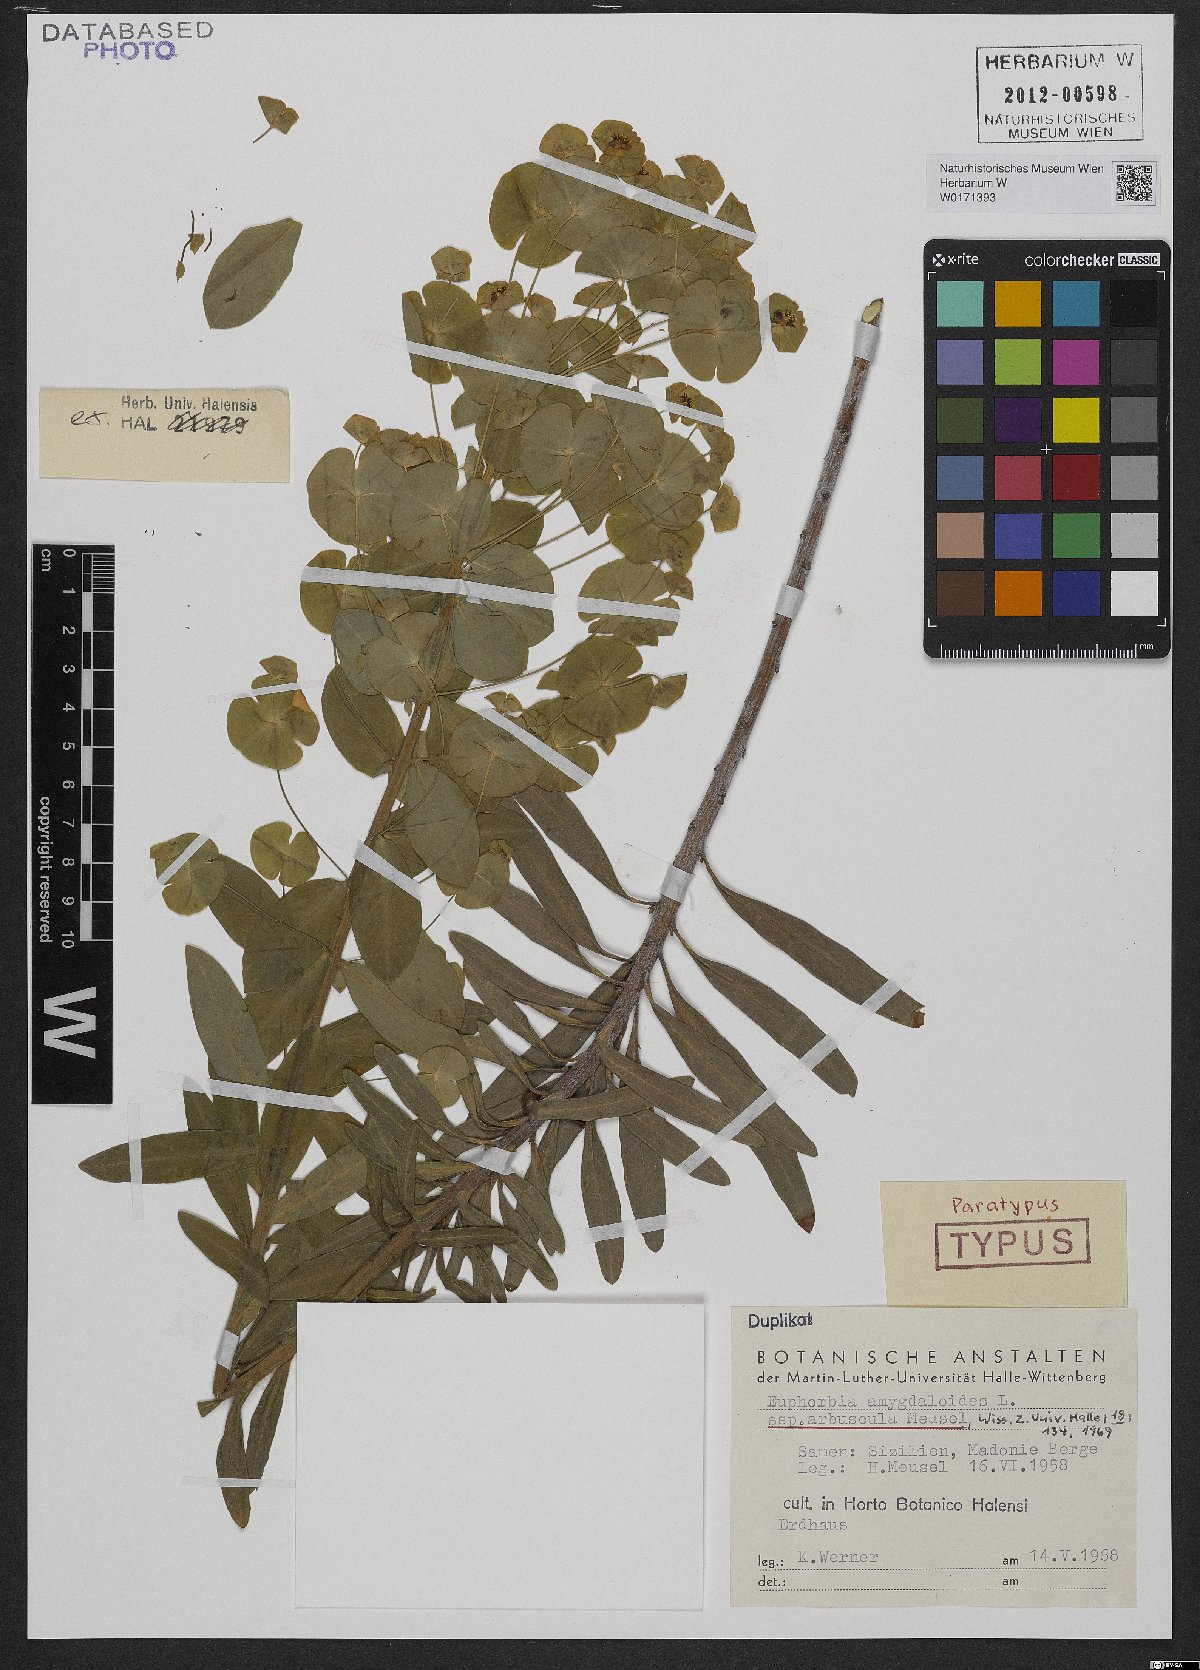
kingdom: Plantae
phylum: Tracheophyta
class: Magnoliopsida
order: Malpighiales
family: Euphorbiaceae
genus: Euphorbia
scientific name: Euphorbia meuselii
